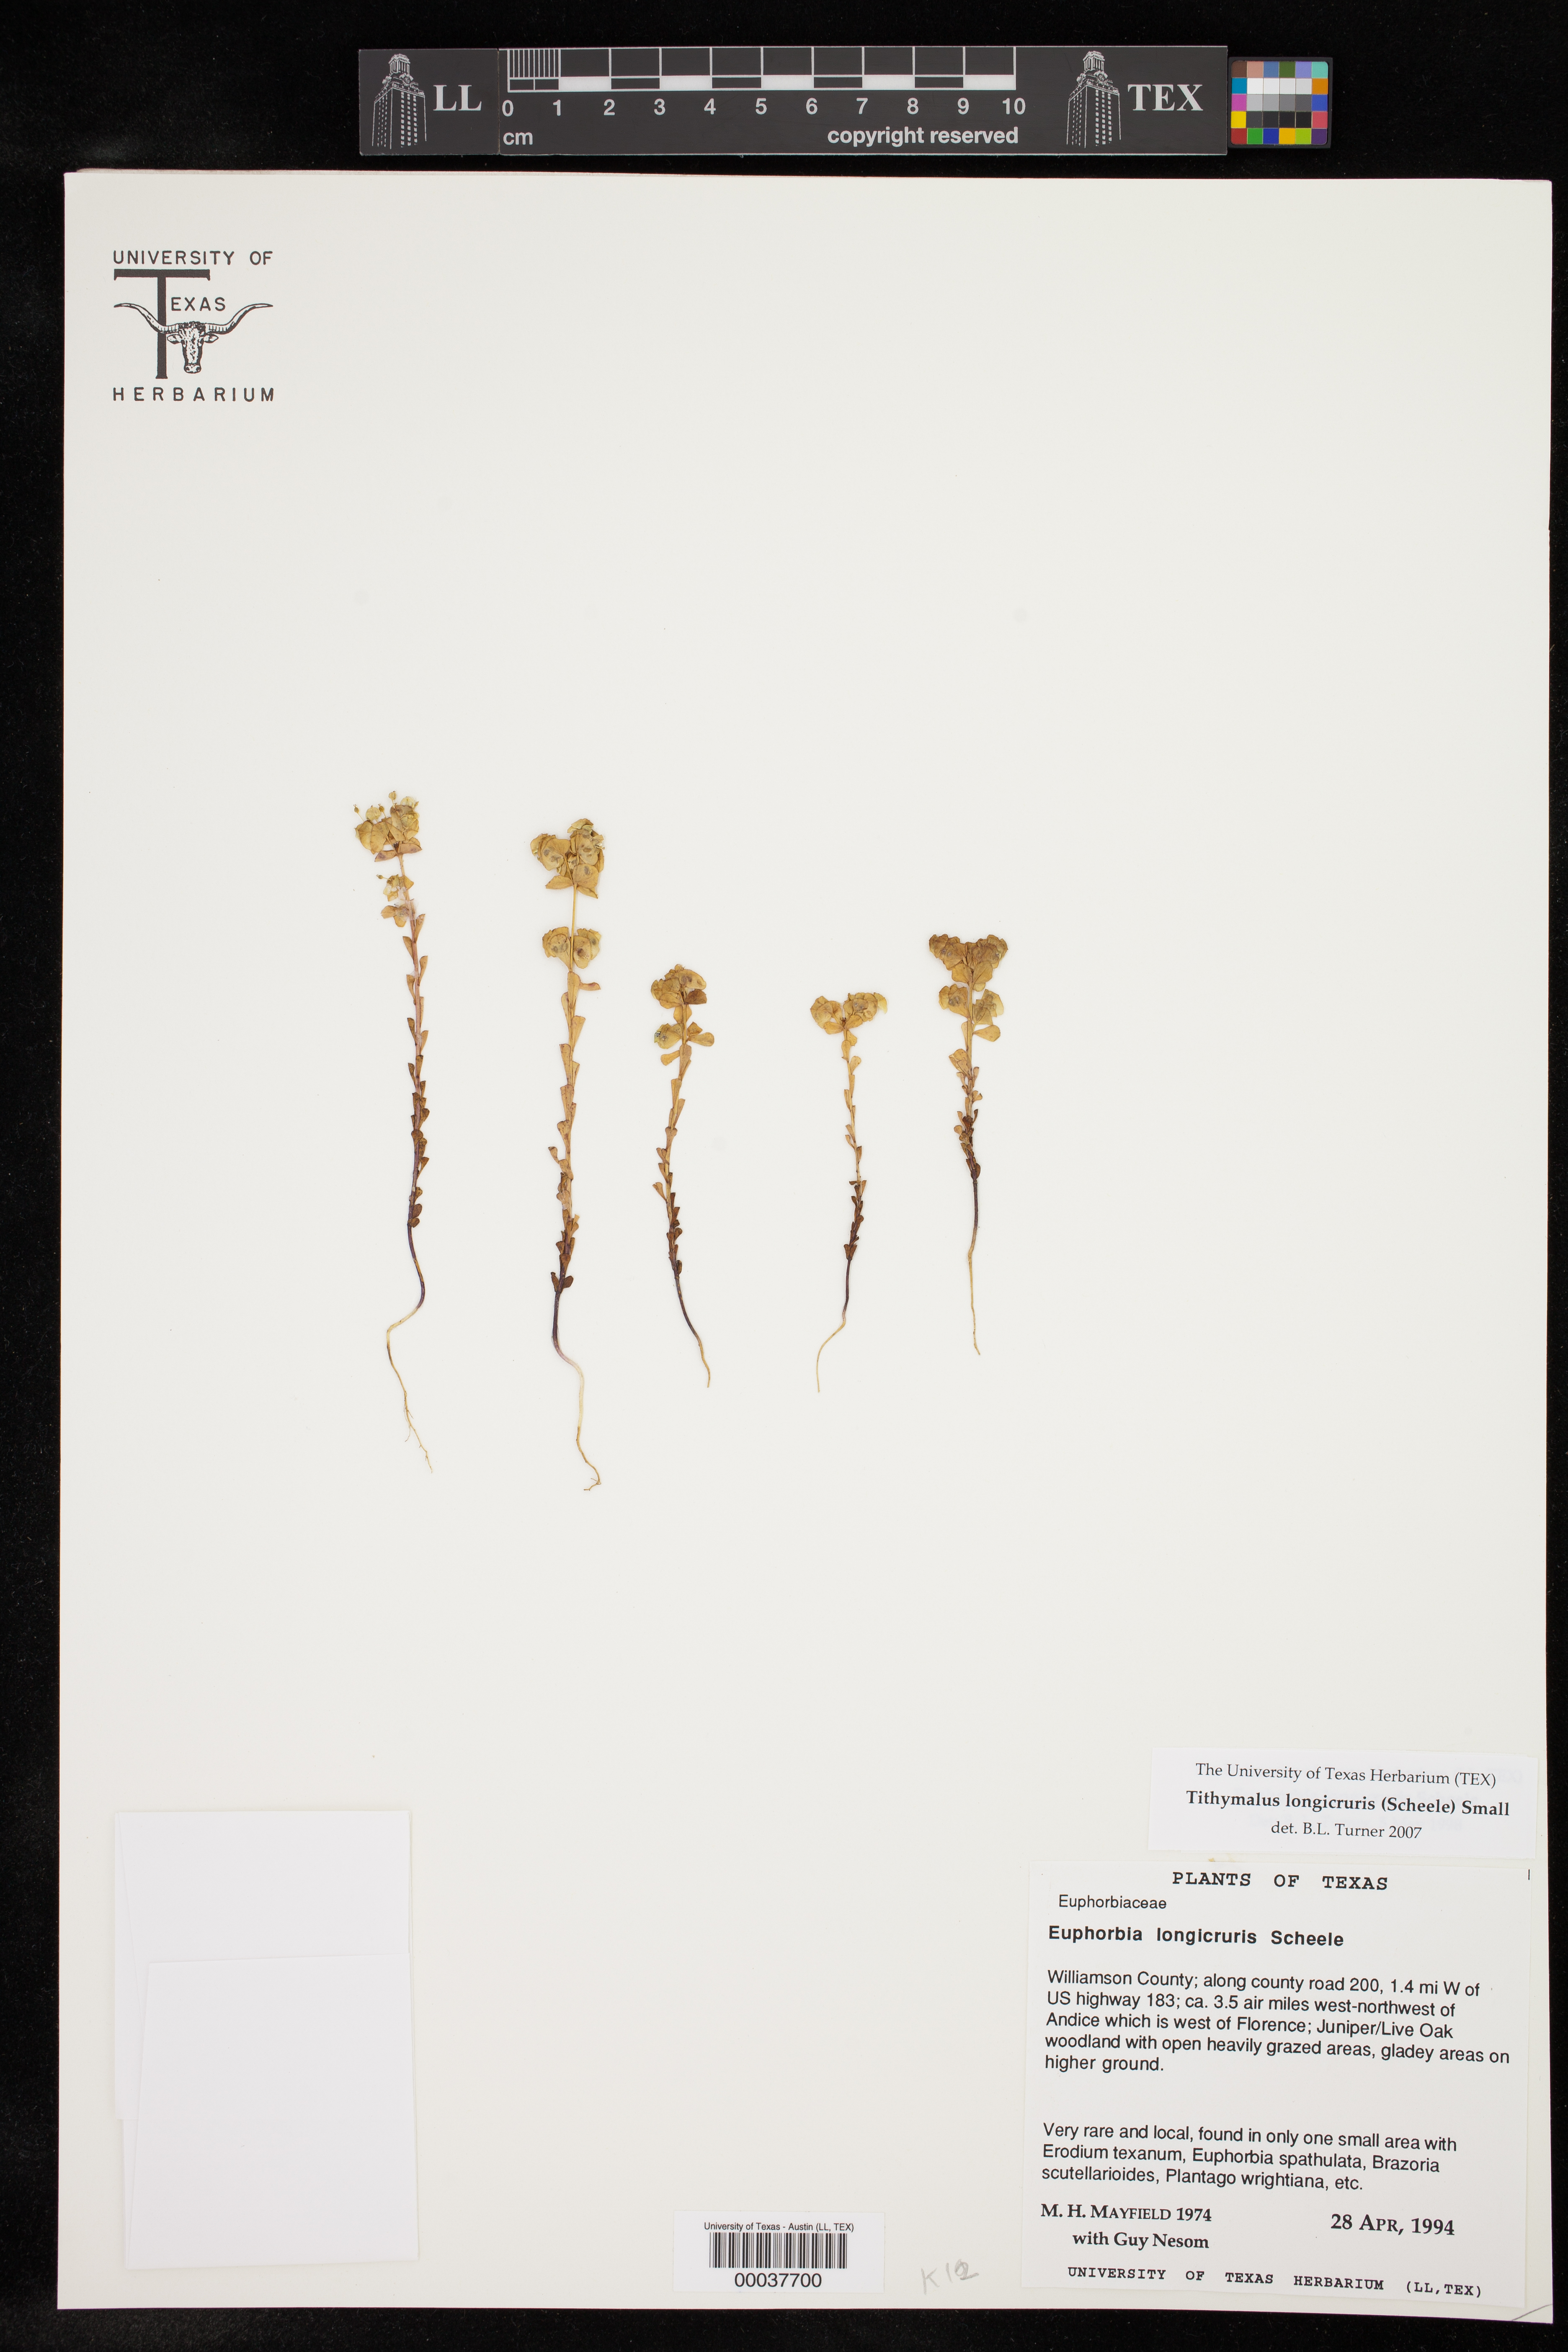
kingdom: Plantae
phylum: Tracheophyta
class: Magnoliopsida
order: Malpighiales
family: Euphorbiaceae
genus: Euphorbia
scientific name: Euphorbia longicruris
